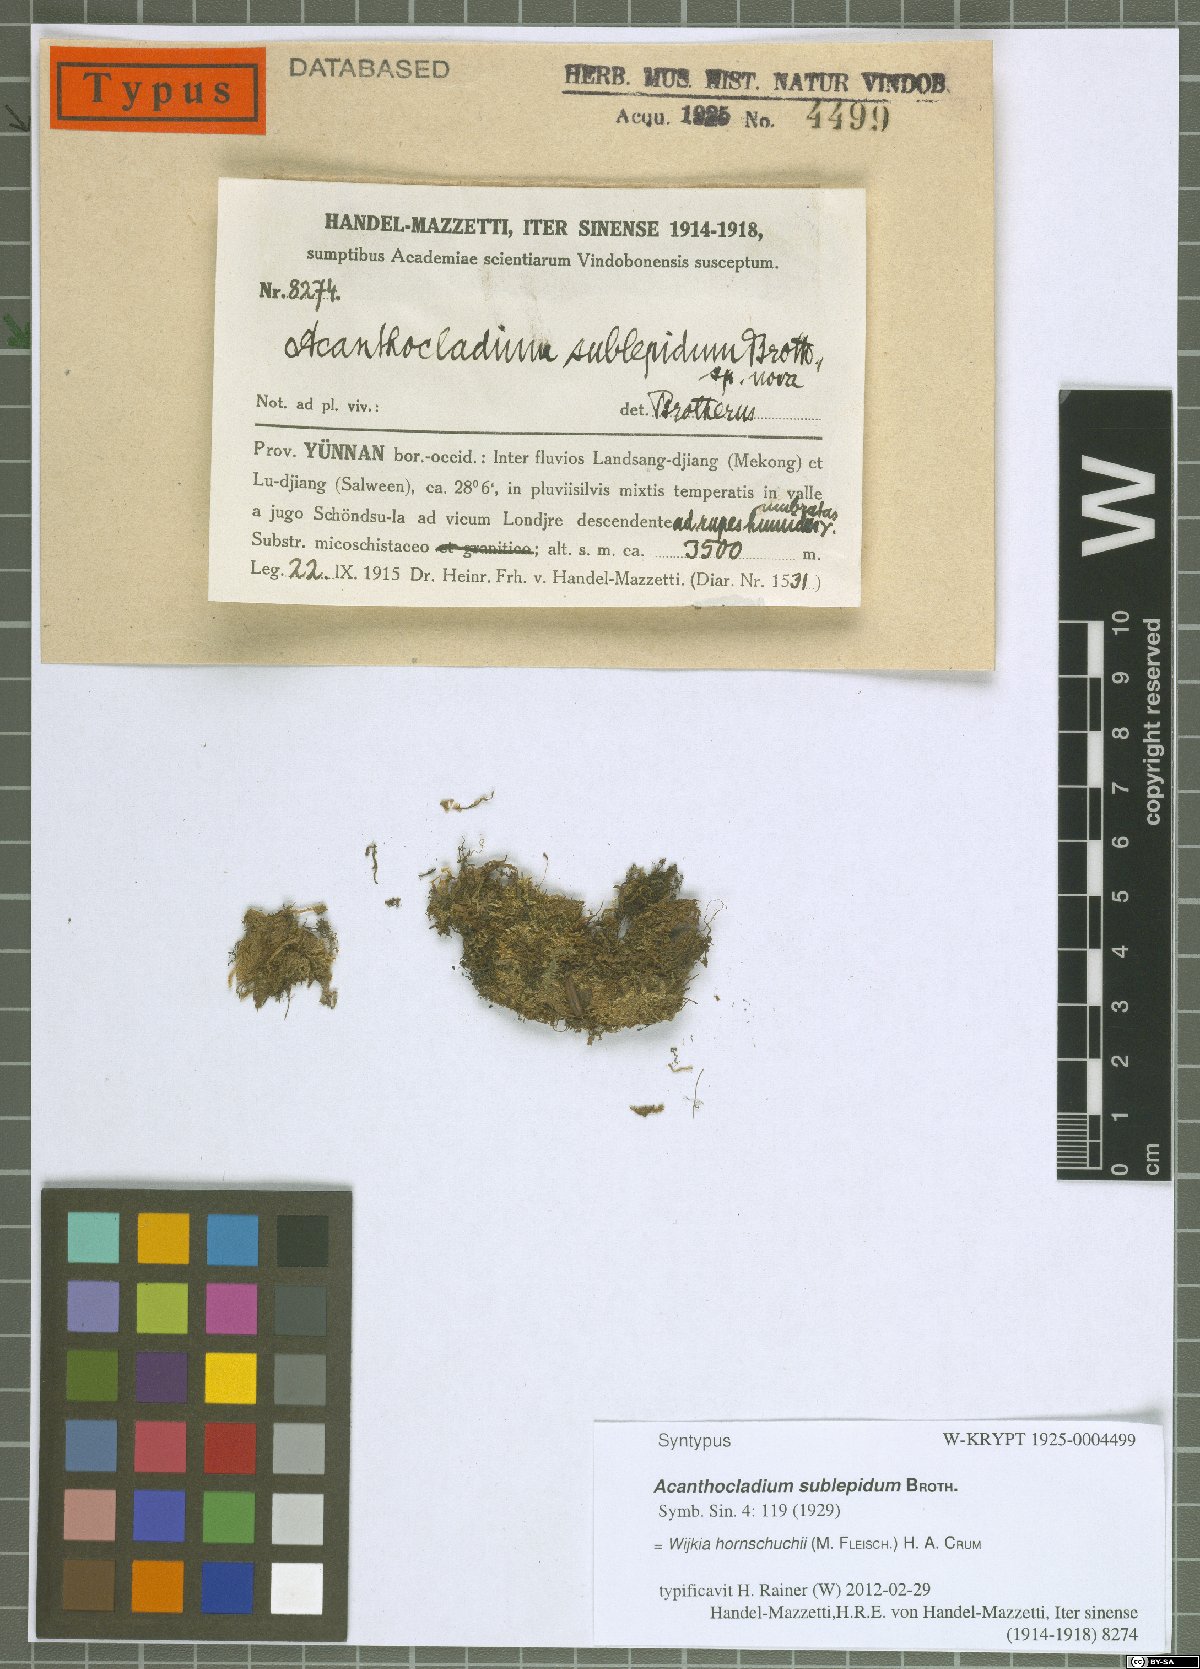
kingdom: Plantae
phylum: Bryophyta
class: Bryopsida
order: Hypnales
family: Pylaisiadelphaceae
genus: Wijkia
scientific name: Wijkia hornschuchii
